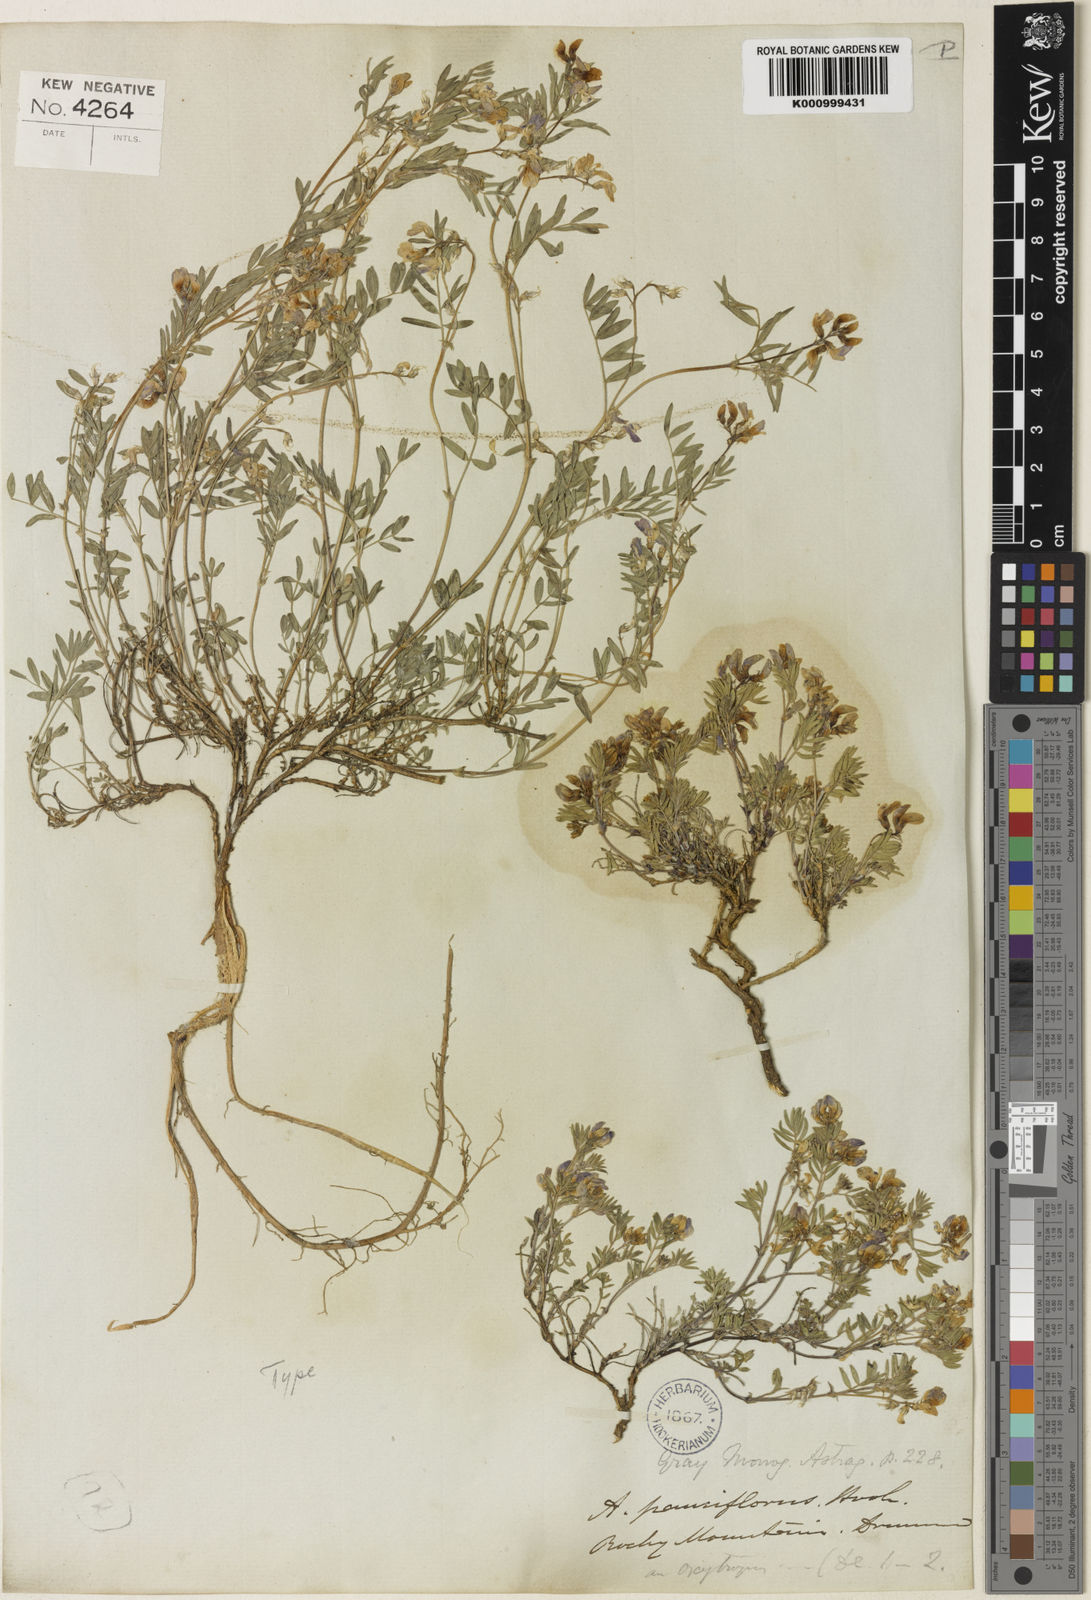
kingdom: Plantae
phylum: Tracheophyta
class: Magnoliopsida
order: Fabales
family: Fabaceae
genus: Astragalus
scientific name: Astragalus
